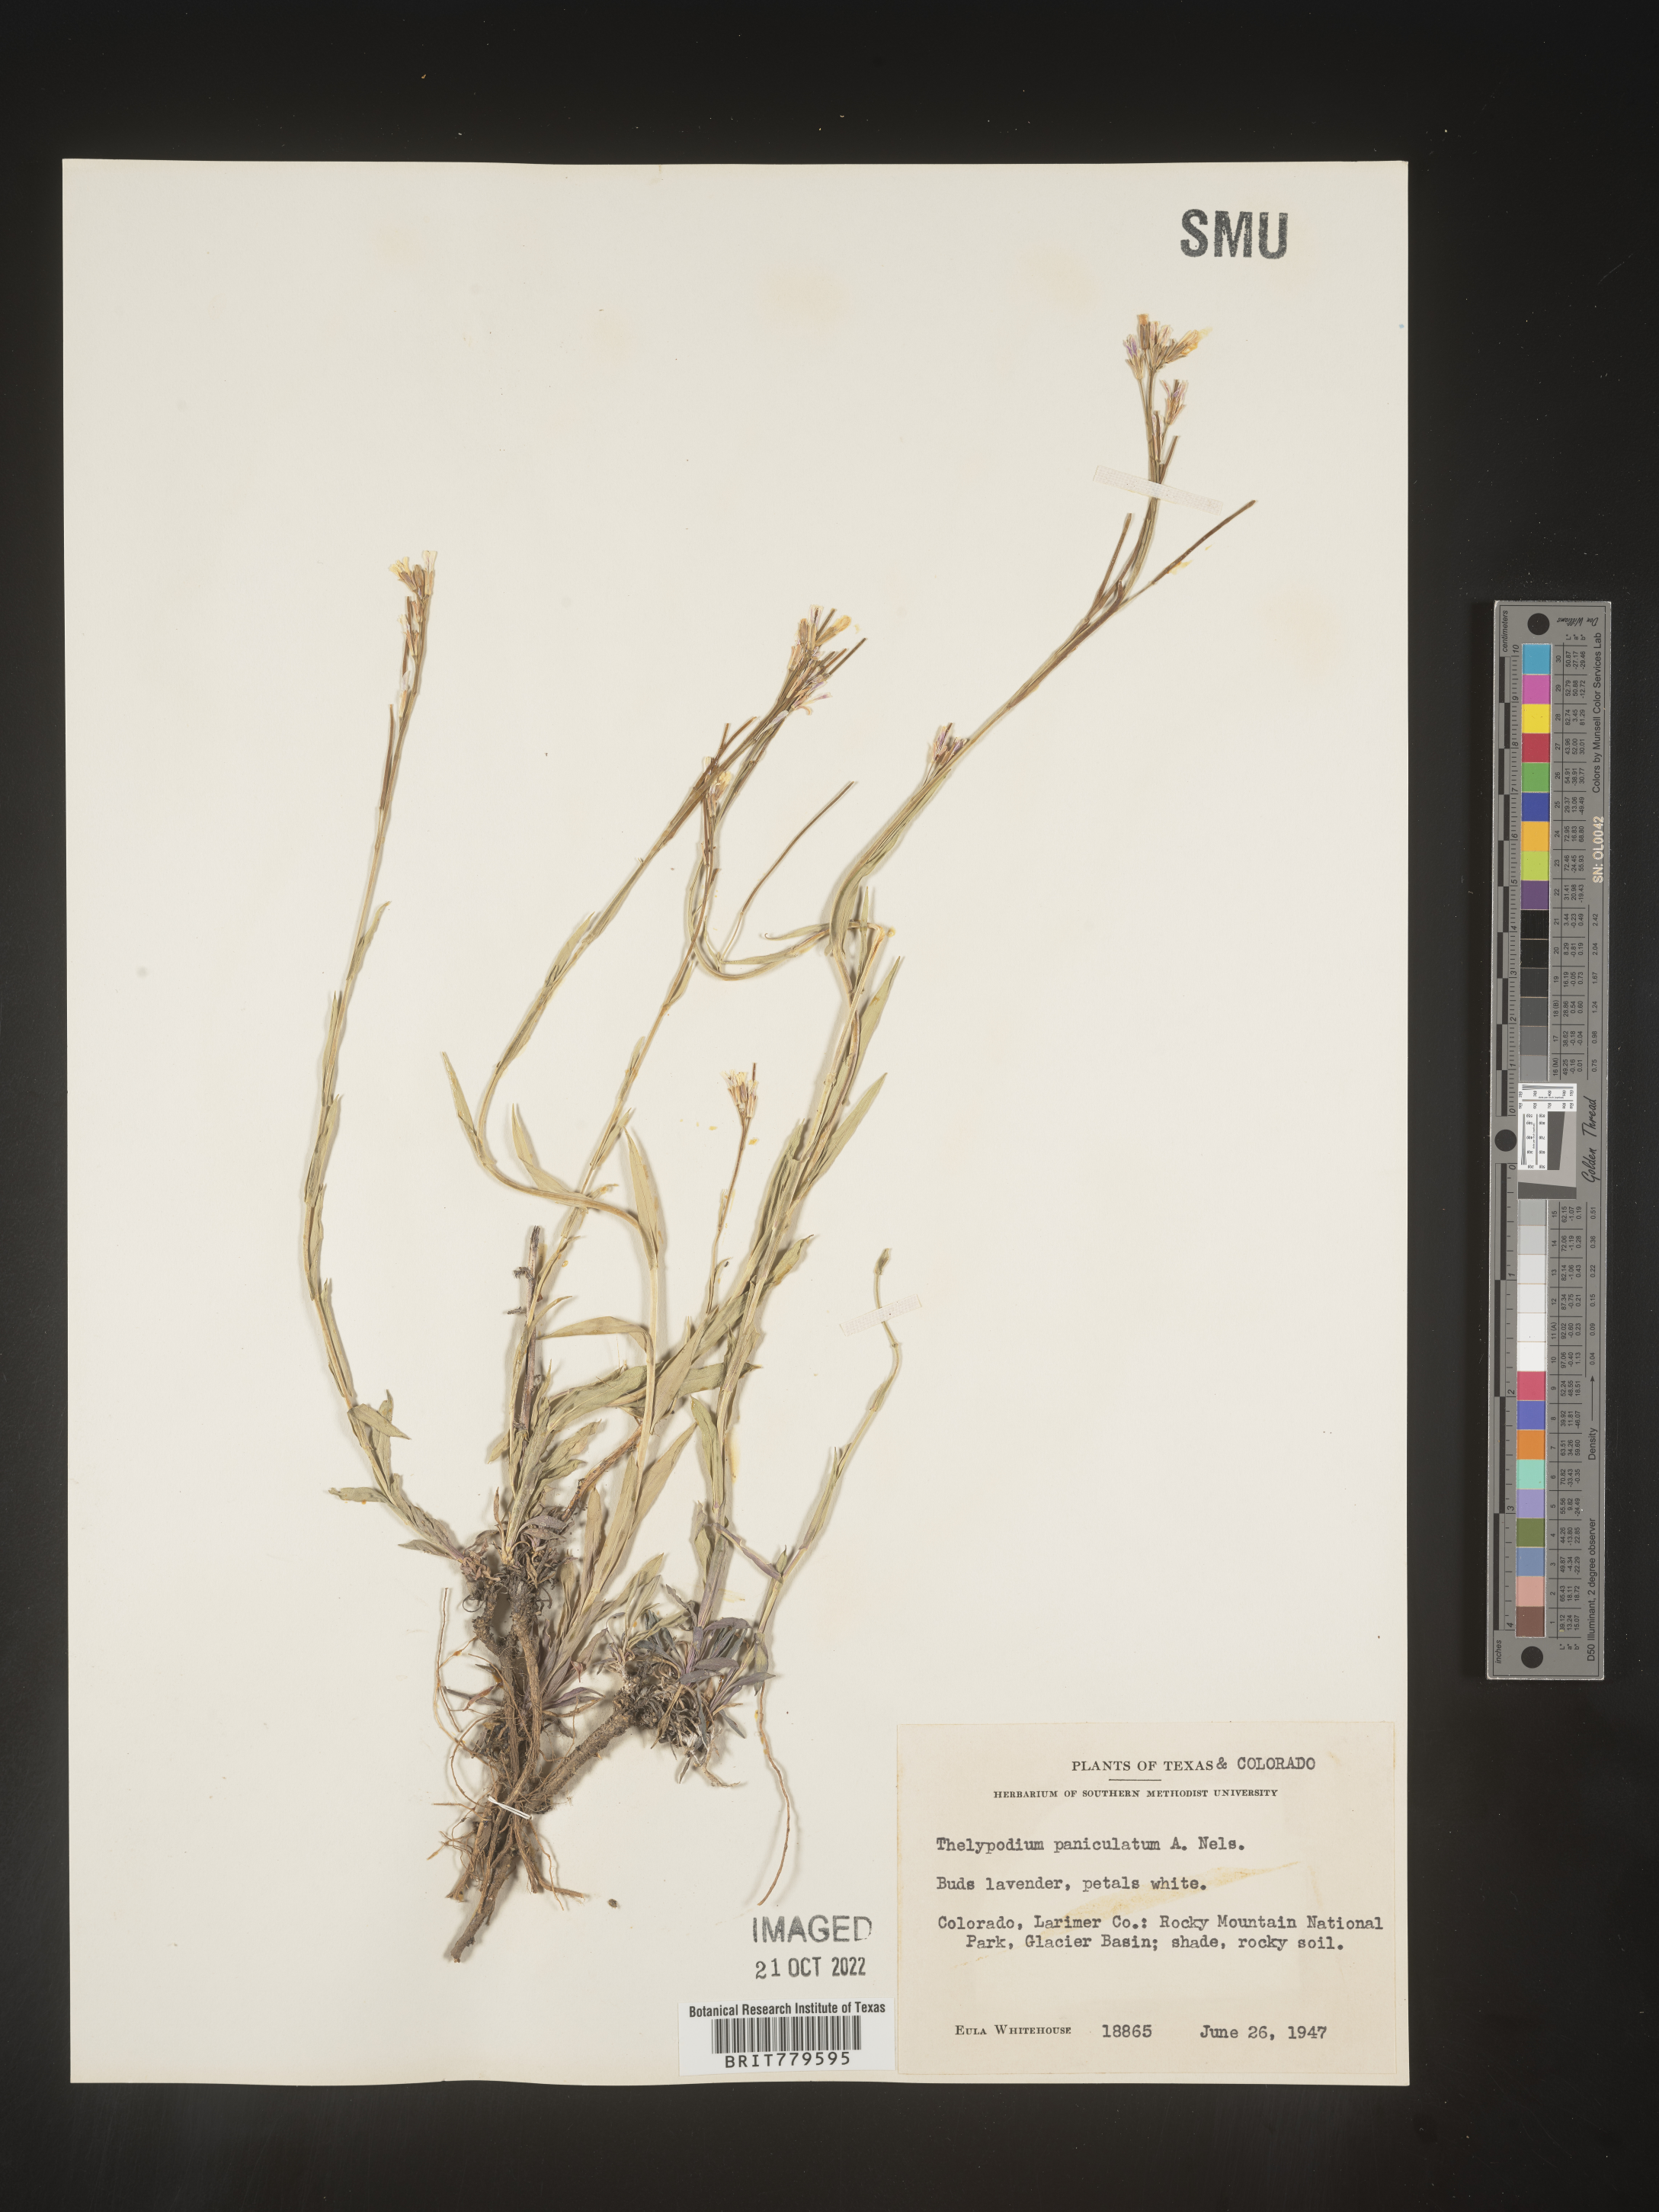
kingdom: Plantae
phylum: Tracheophyta
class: Magnoliopsida
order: Brassicales
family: Brassicaceae
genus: Thelypodium
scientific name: Thelypodium
